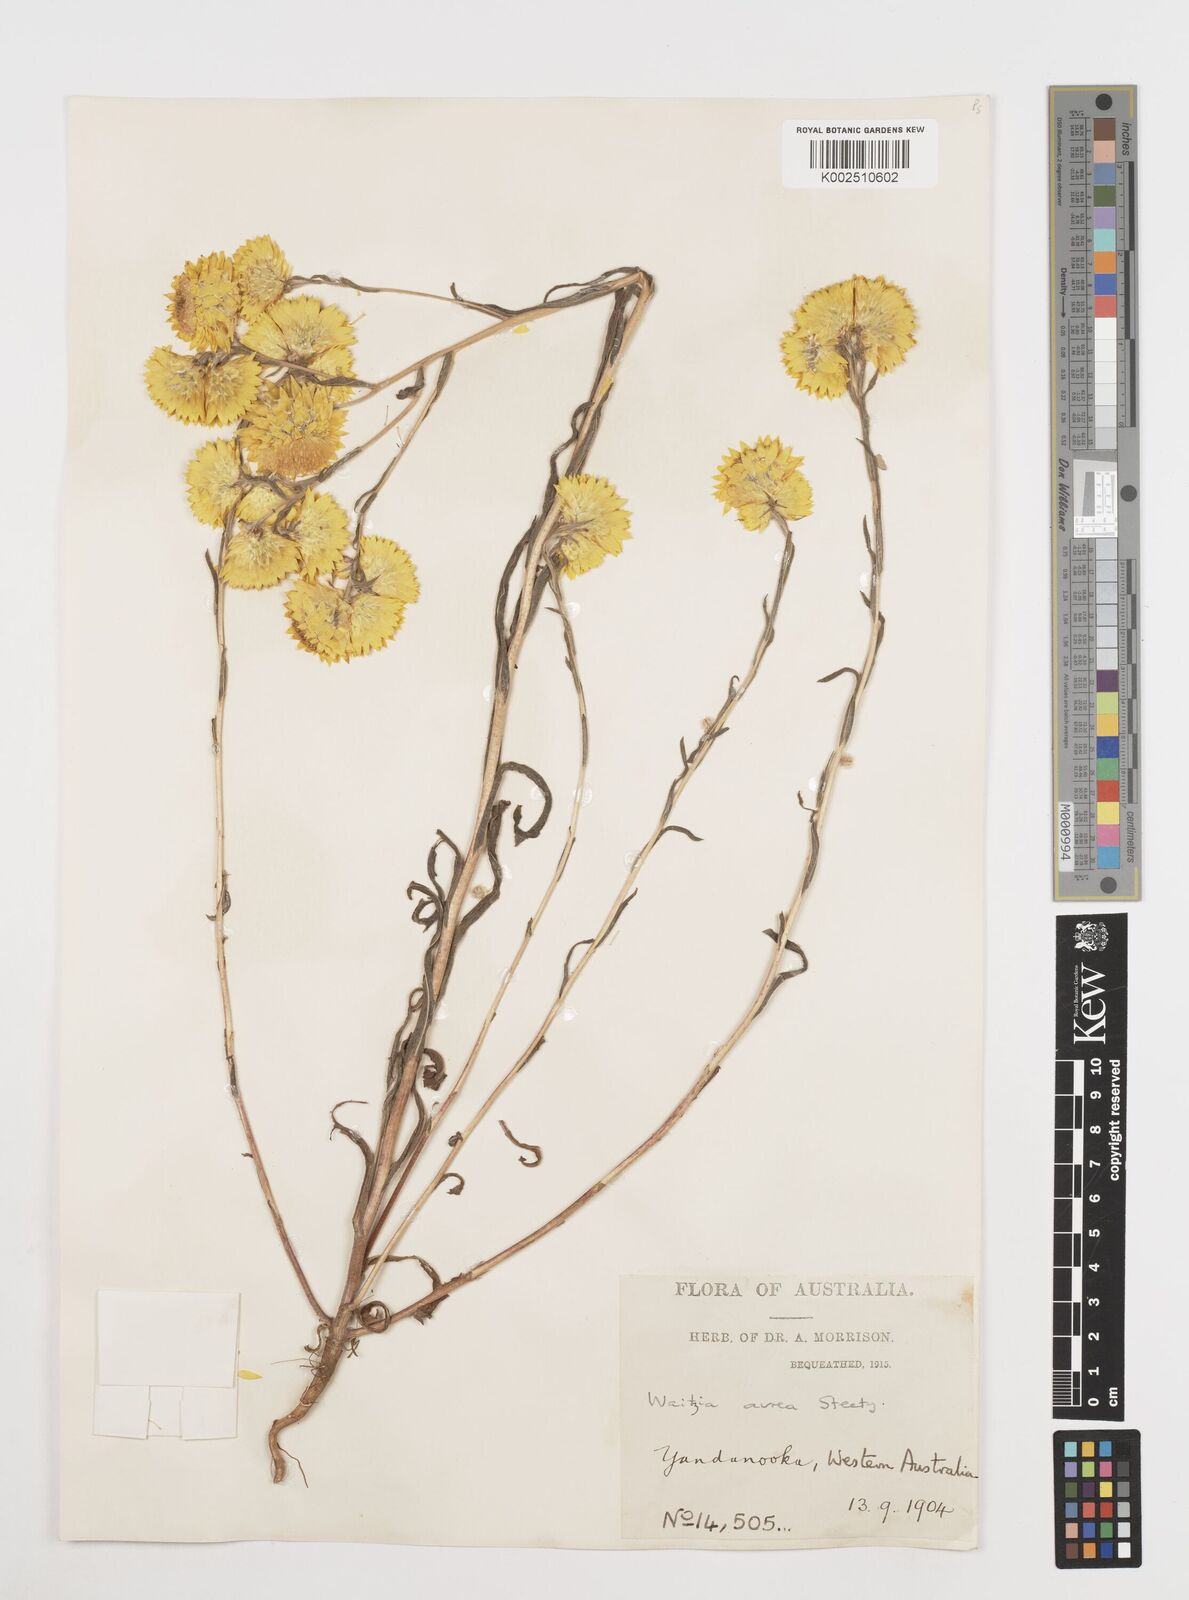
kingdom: Plantae
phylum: Tracheophyta
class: Magnoliopsida
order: Asterales
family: Asteraceae
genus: Waitzia
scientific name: Waitzia nitida
